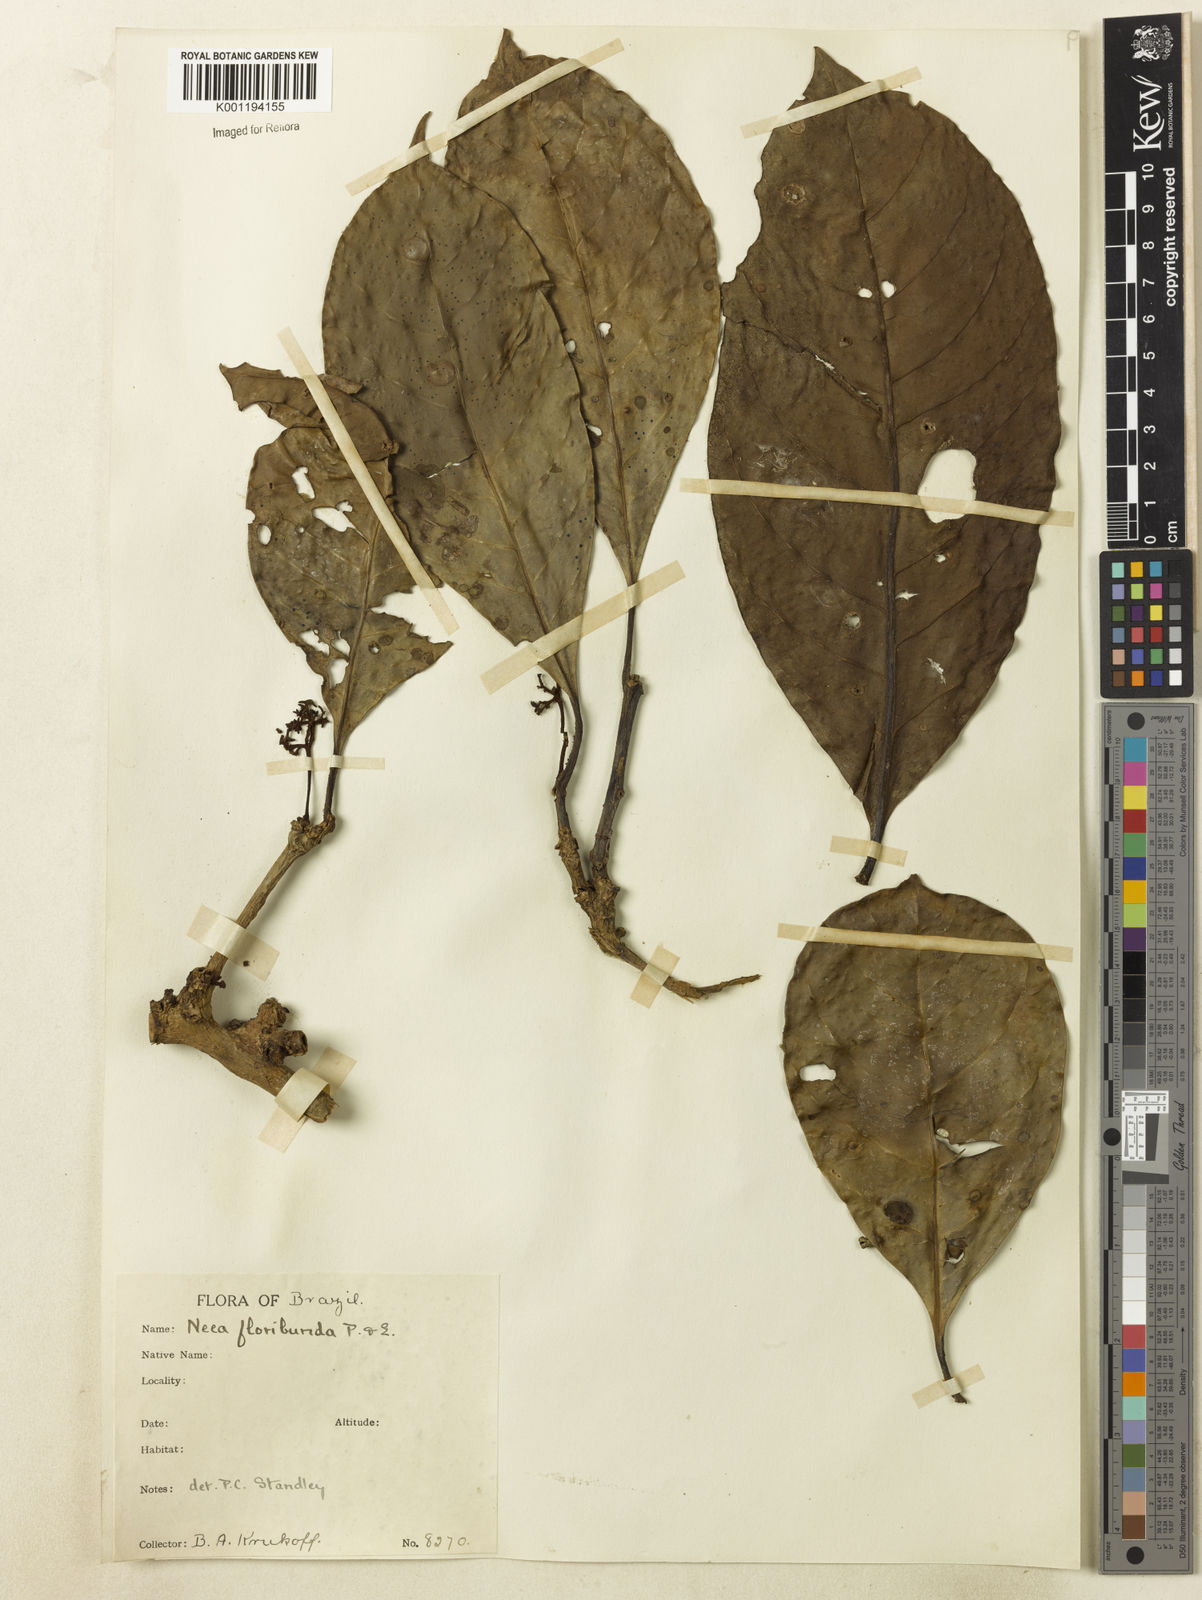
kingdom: Plantae
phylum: Tracheophyta
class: Magnoliopsida
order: Caryophyllales
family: Nyctaginaceae
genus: Neea
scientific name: Neea floribunda
